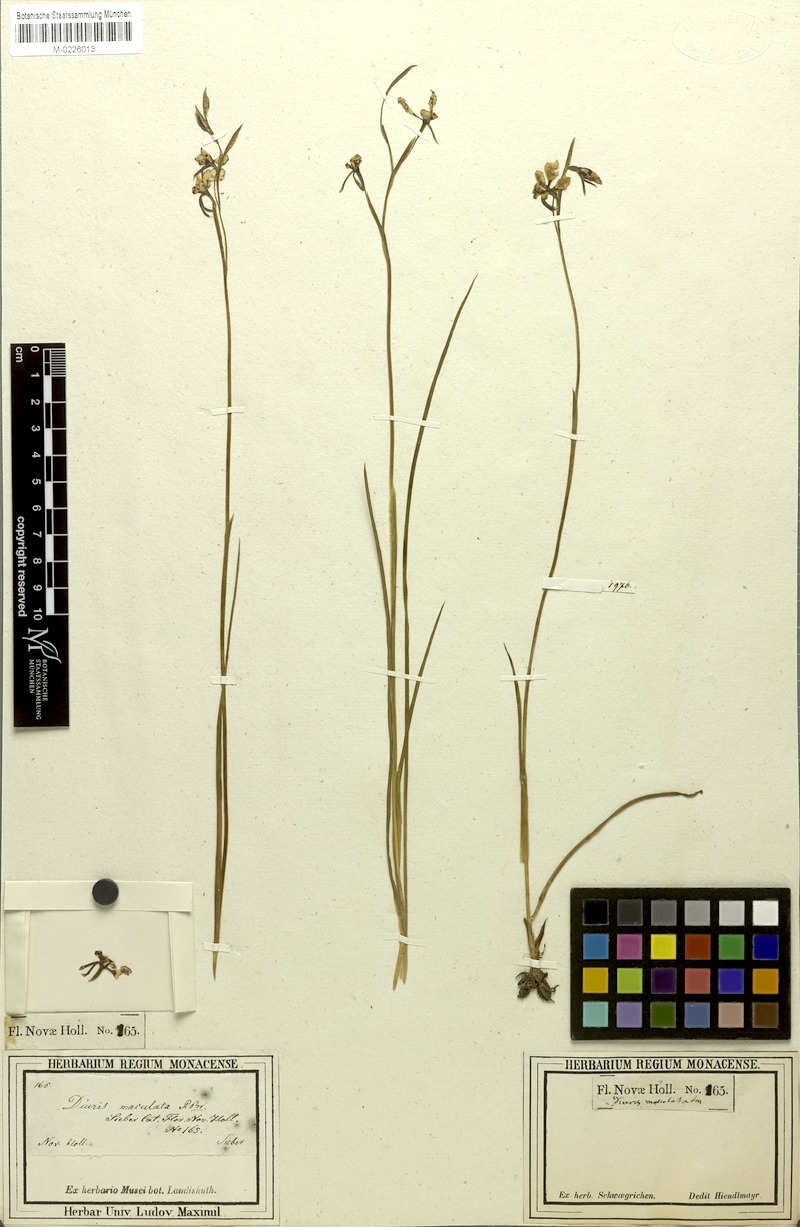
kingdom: Plantae
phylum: Tracheophyta
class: Liliopsida
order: Asparagales
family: Orchidaceae
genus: Diuris
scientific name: Diuris maculata
